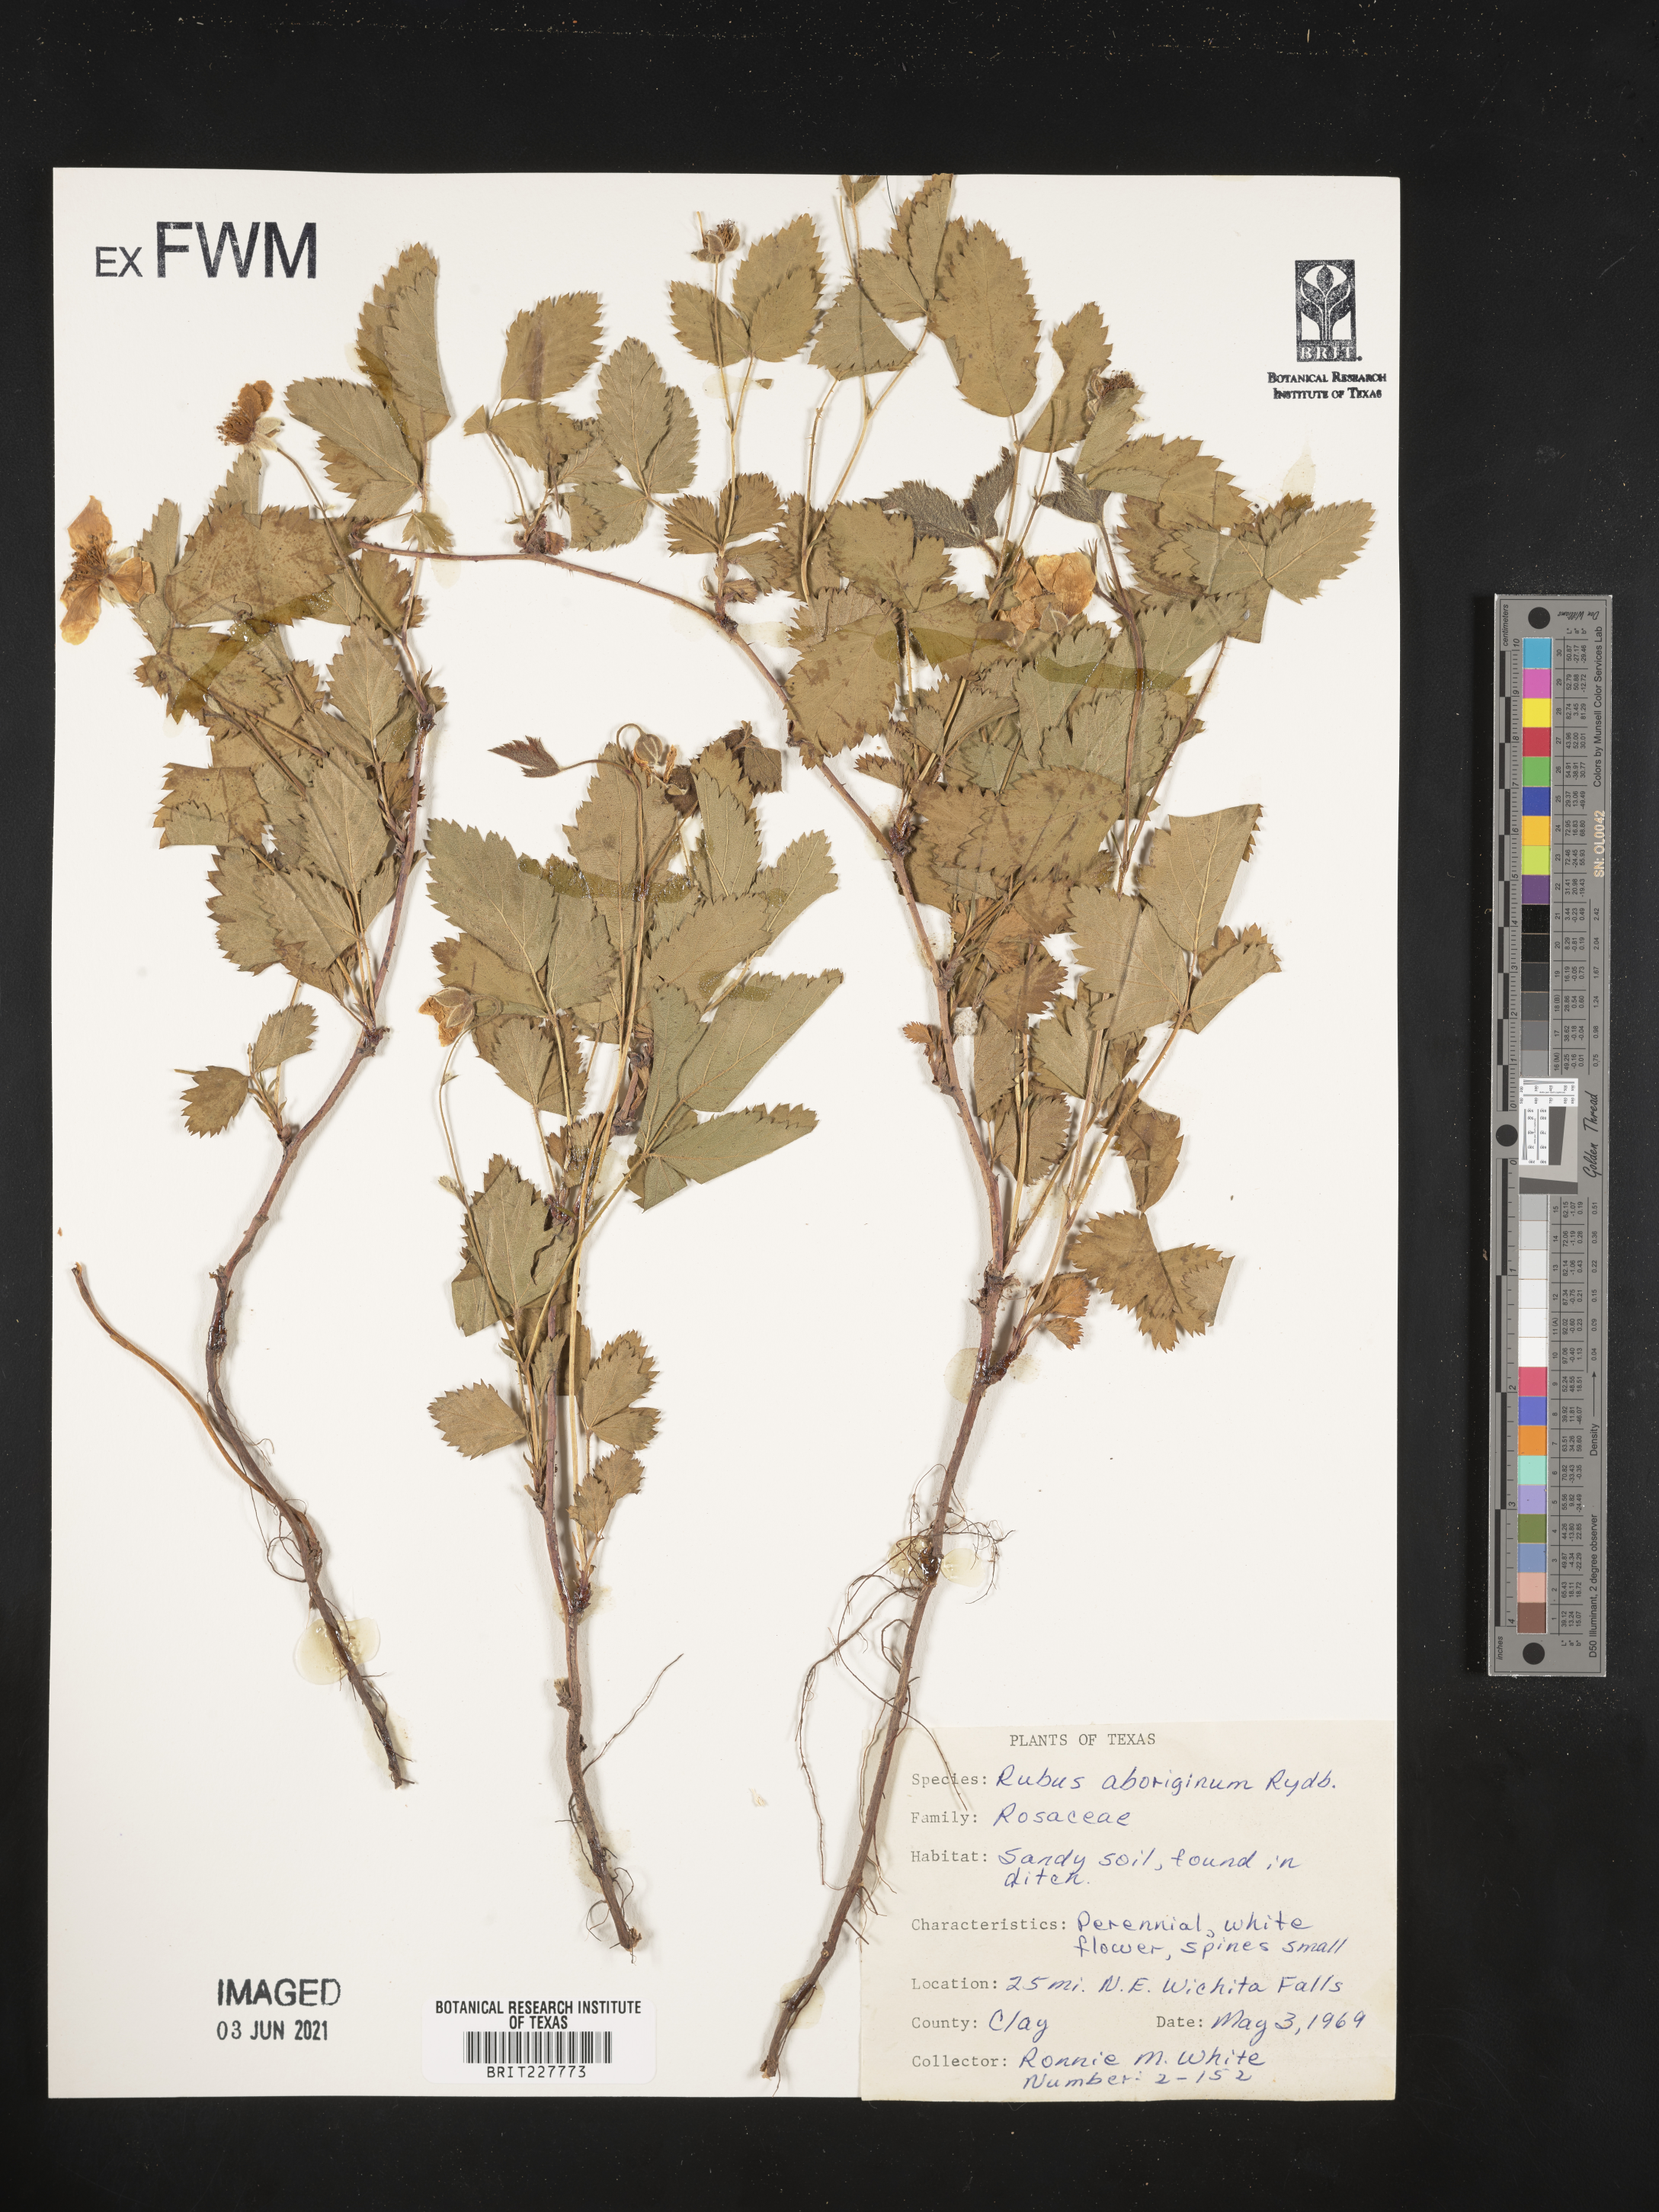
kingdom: Plantae
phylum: Tracheophyta
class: Magnoliopsida
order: Rosales
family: Rosaceae
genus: Rubus
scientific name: Rubus aboriginum
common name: Mayes dewberry
